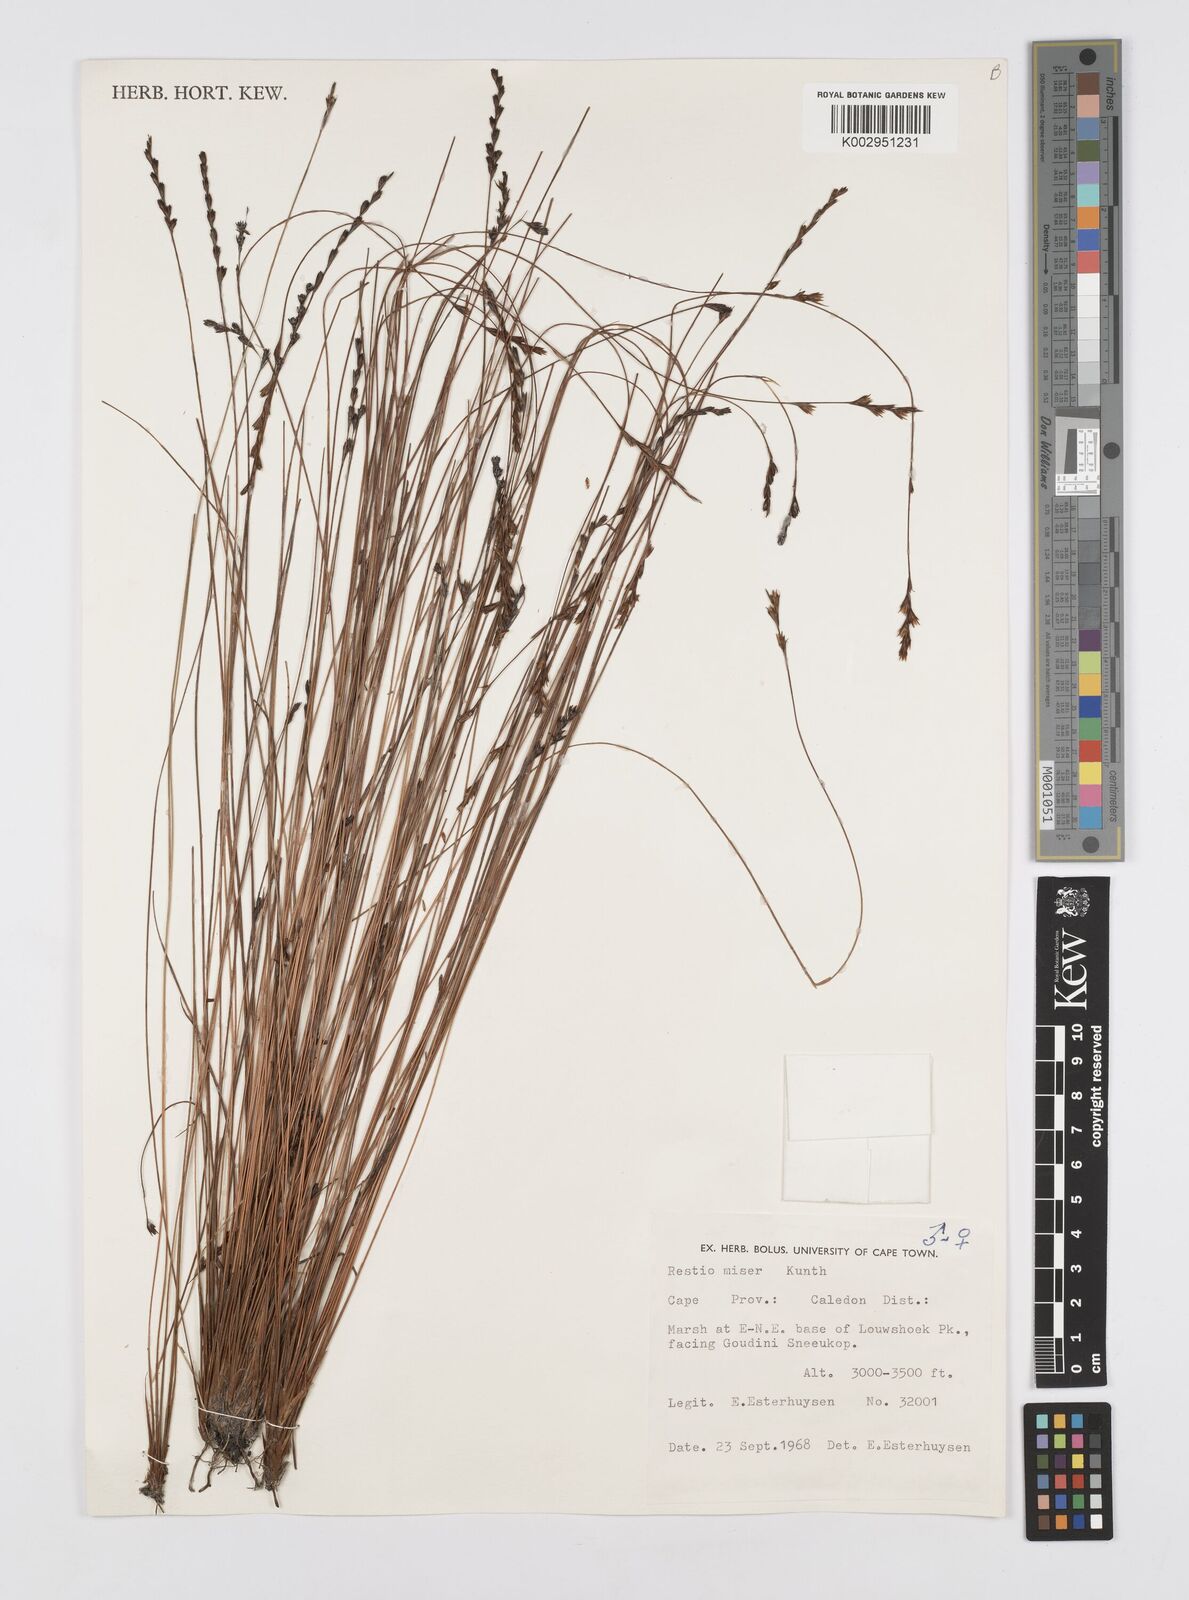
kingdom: Plantae
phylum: Tracheophyta
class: Liliopsida
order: Poales
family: Restionaceae
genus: Restio
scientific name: Restio miser
